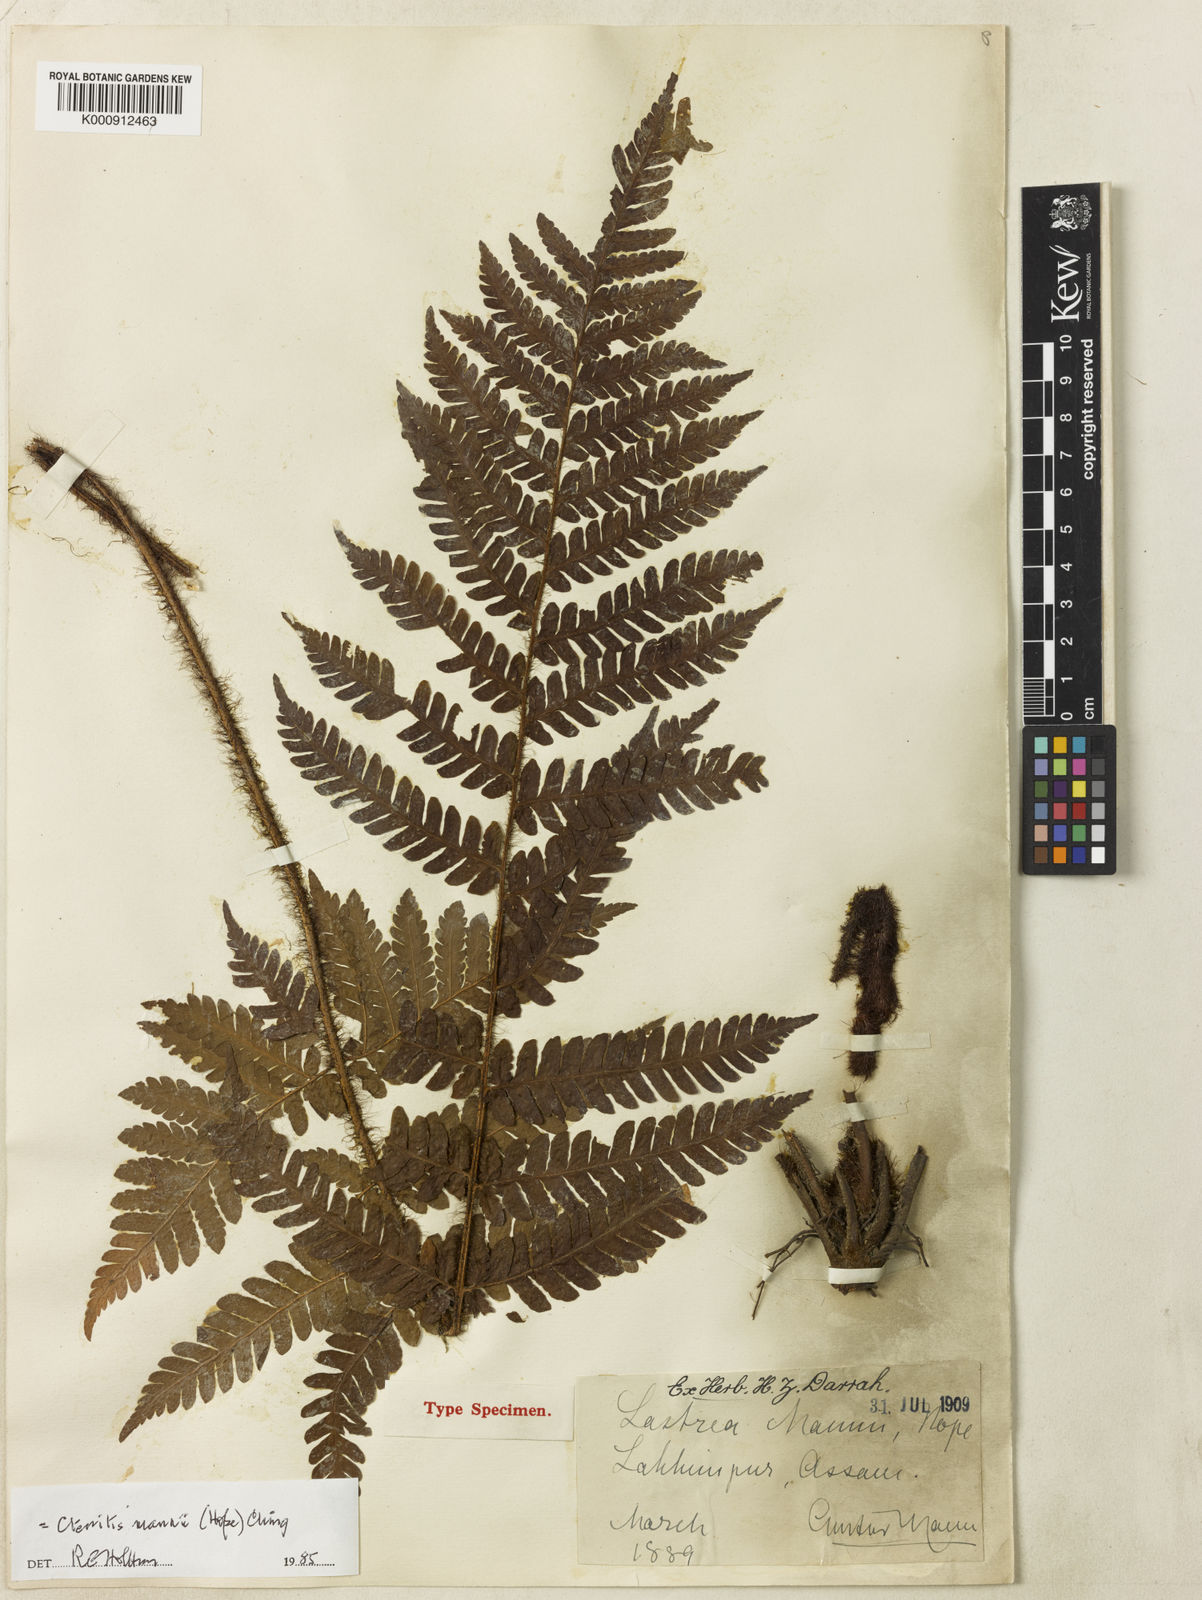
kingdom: Plantae
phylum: Tracheophyta
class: Polypodiopsida
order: Polypodiales
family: Dryopteridaceae
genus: Ctenitis
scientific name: Ctenitis mannii
